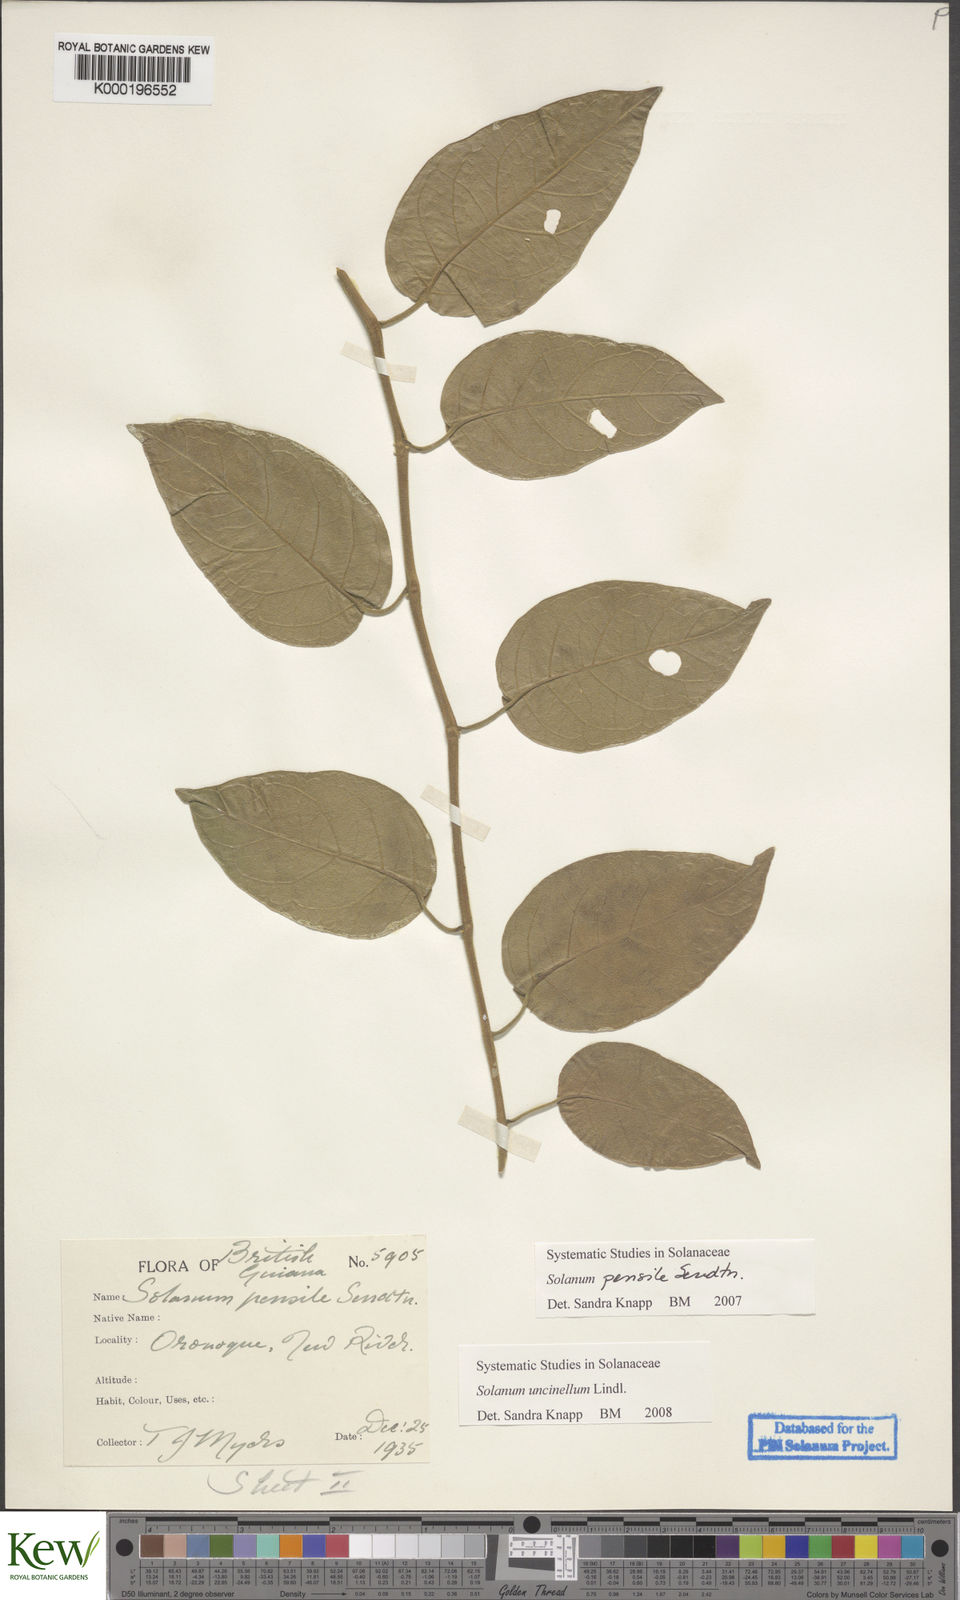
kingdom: Plantae
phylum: Tracheophyta
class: Magnoliopsida
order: Solanales
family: Solanaceae
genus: Solanum
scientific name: Solanum uncinellum
